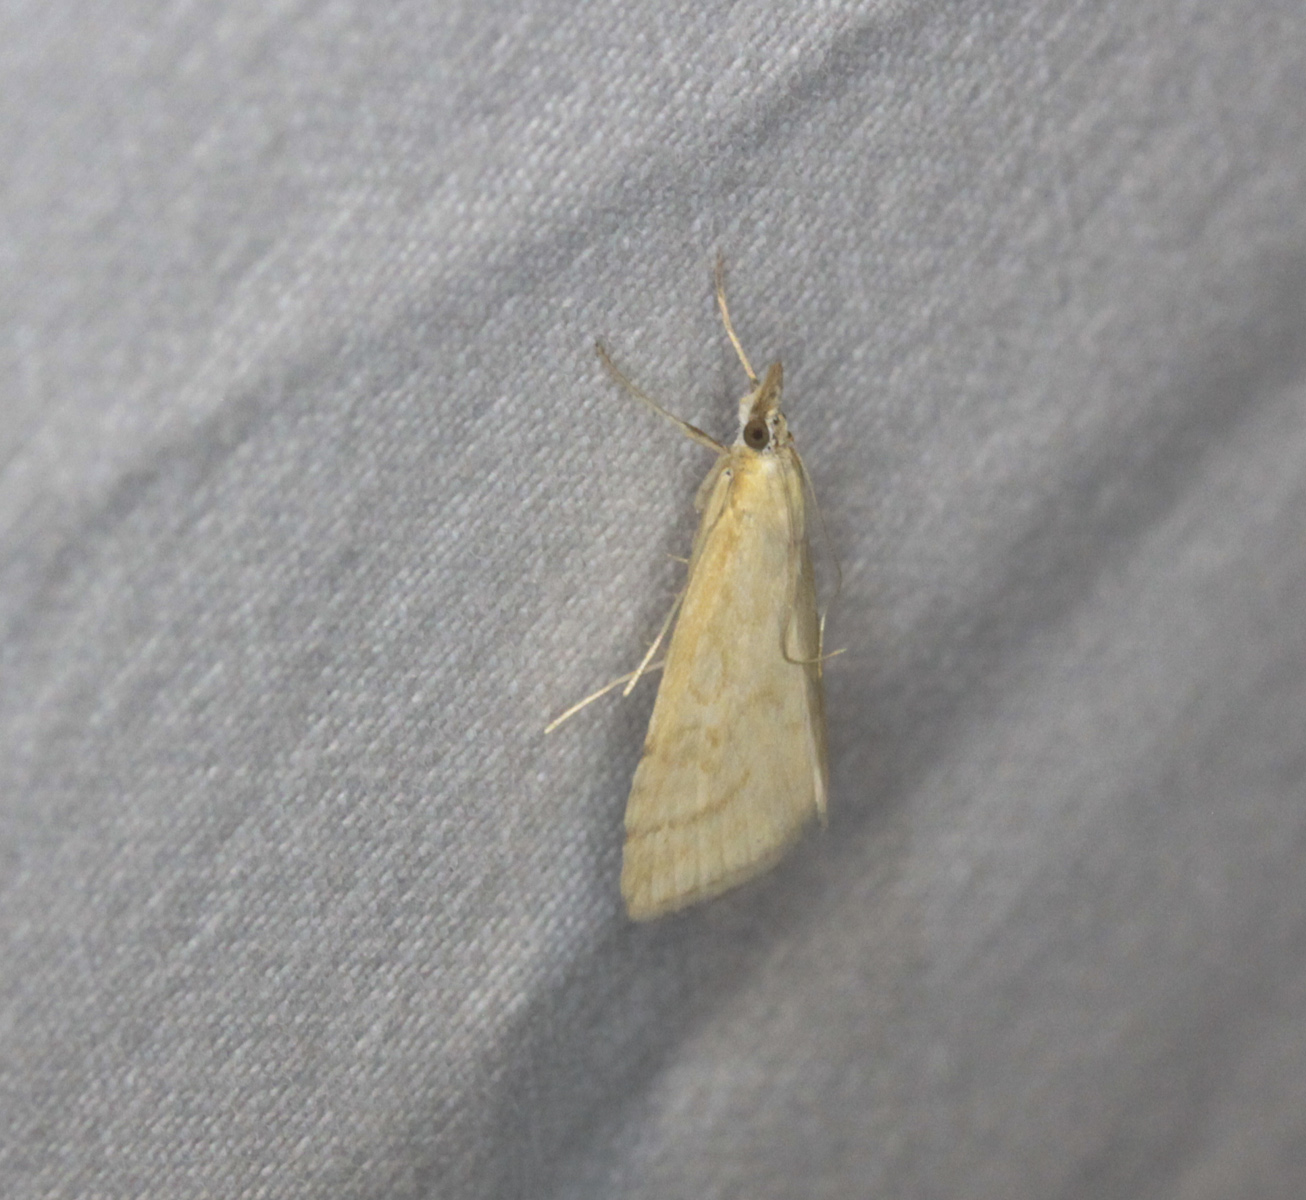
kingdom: Animalia
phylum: Arthropoda
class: Insecta
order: Lepidoptera
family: Crambidae
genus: Udea
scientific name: Udea lutealis
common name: Pale straw pearl
